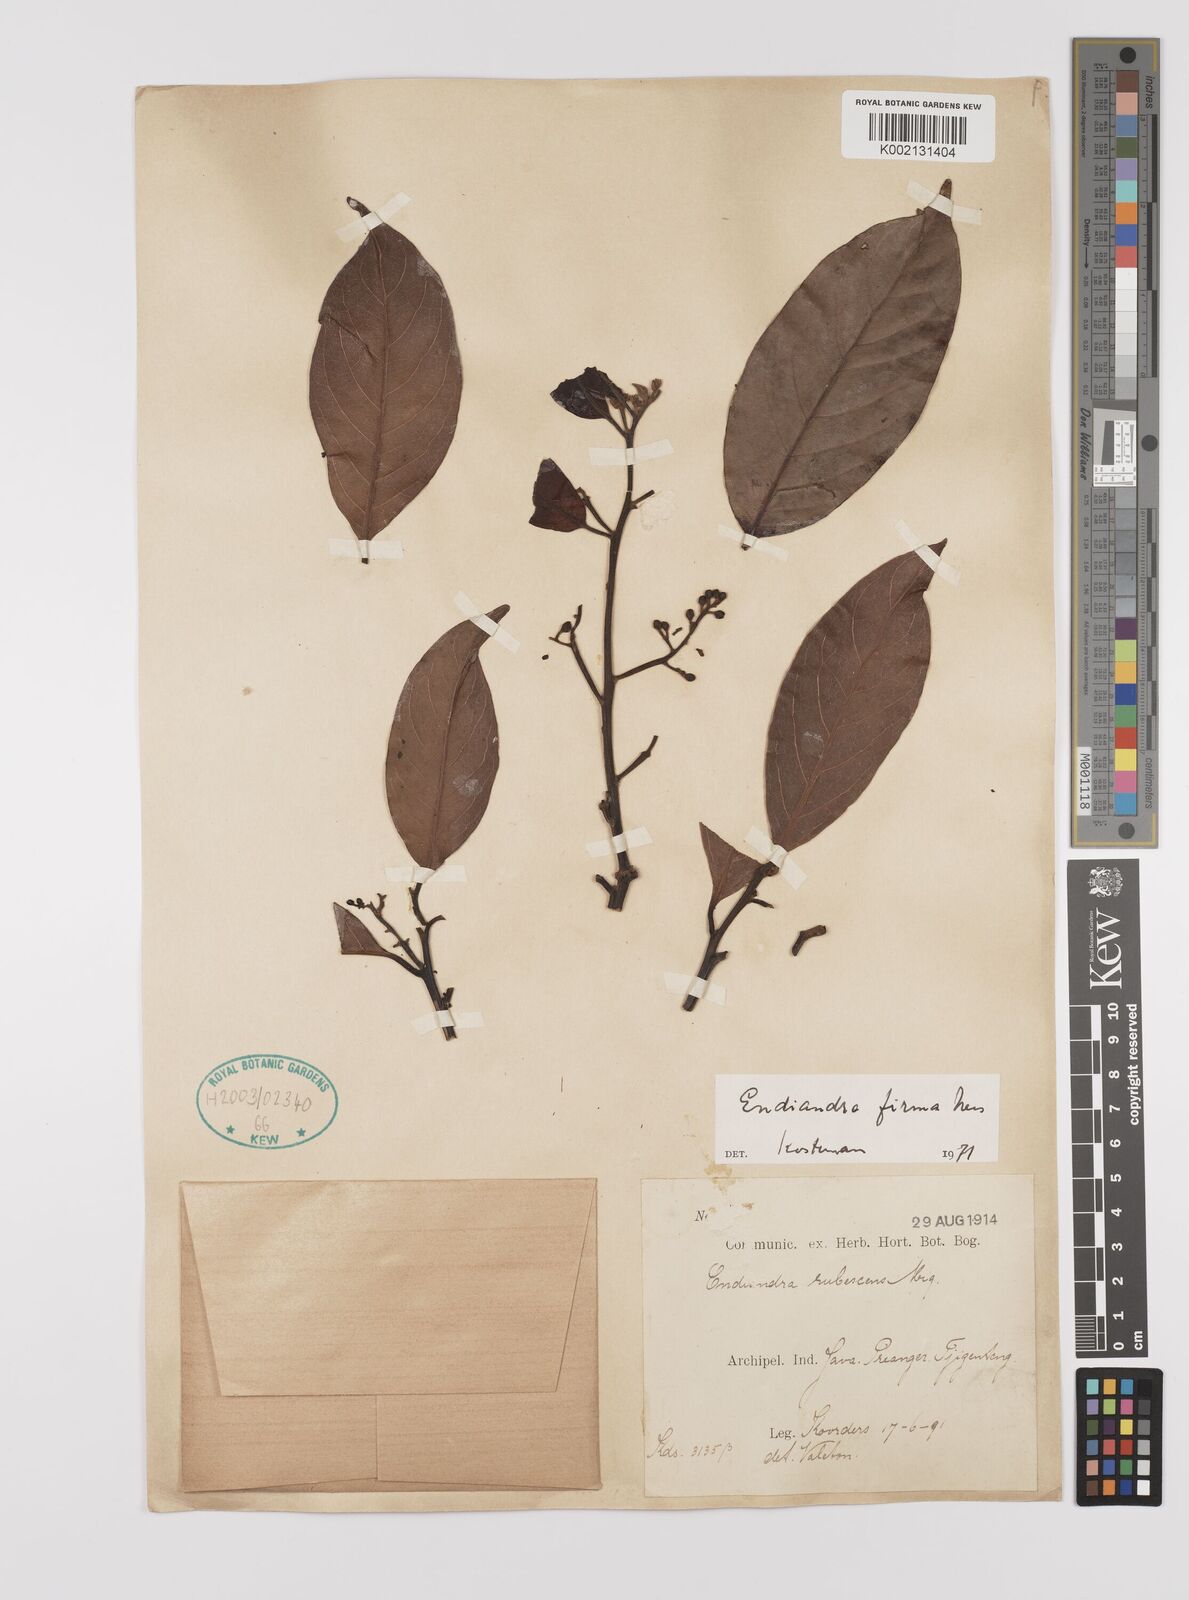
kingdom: Plantae
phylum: Tracheophyta
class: Magnoliopsida
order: Laurales
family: Lauraceae
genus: Endiandra
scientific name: Endiandra firma
